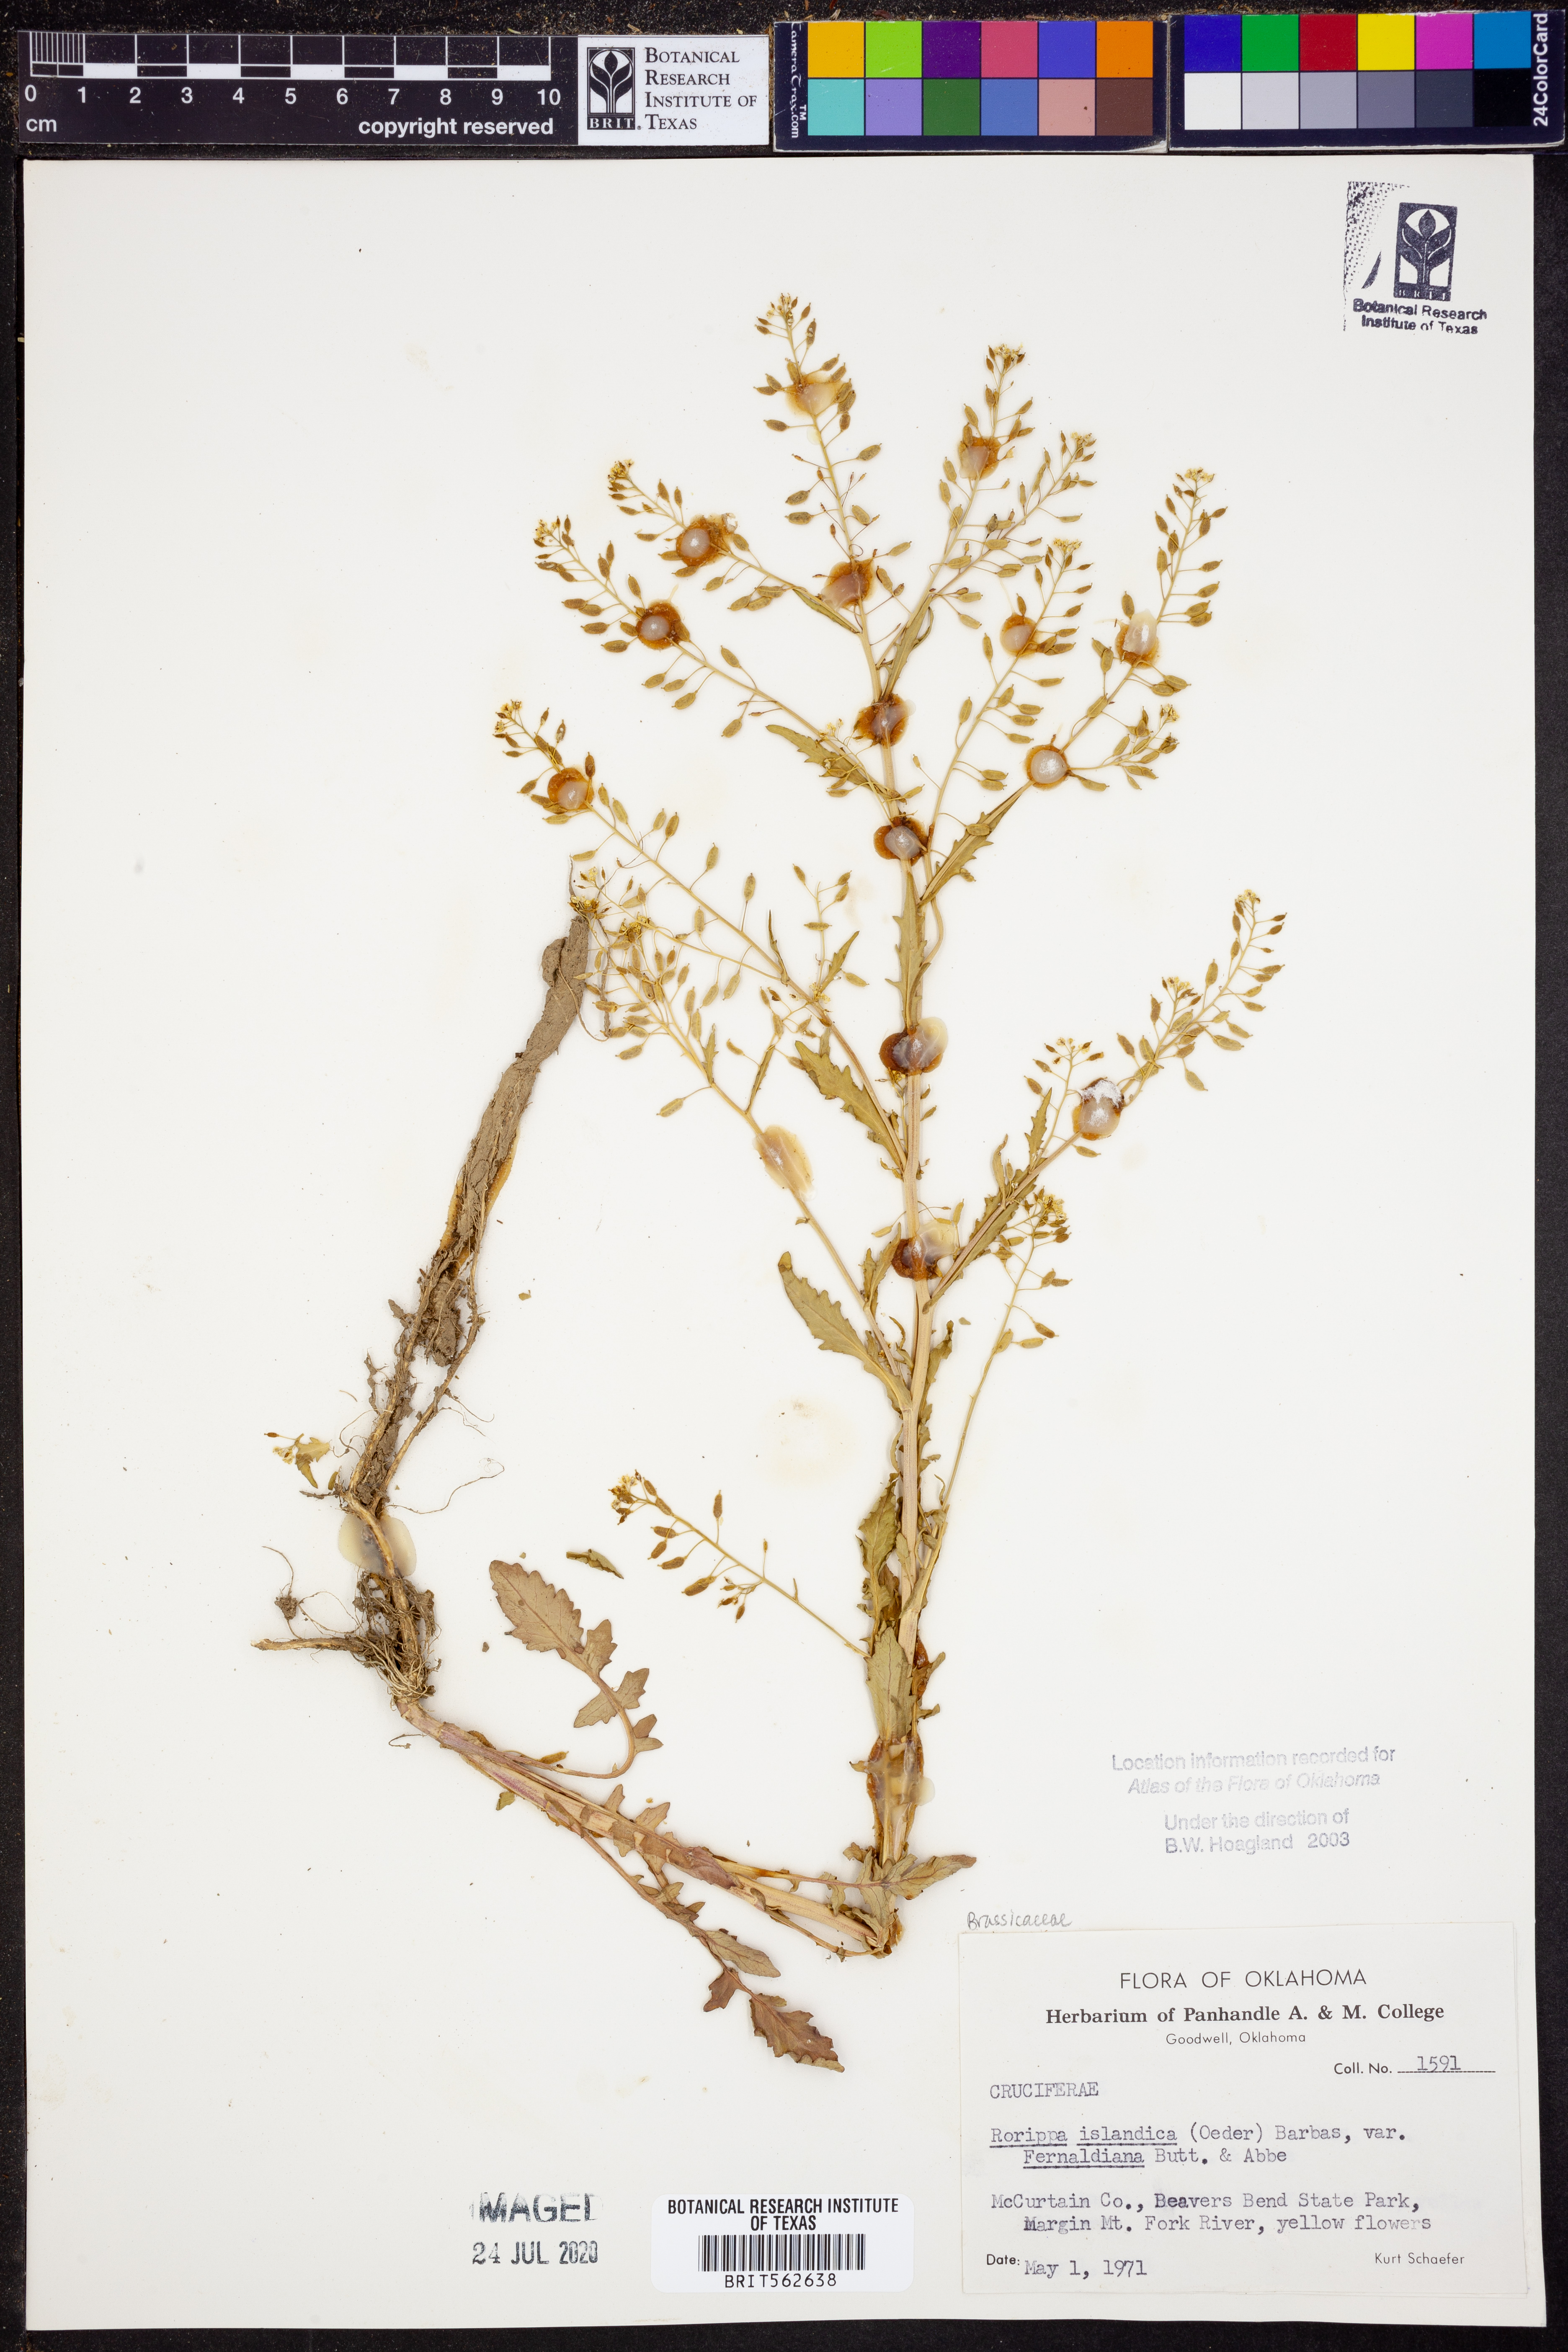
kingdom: Plantae
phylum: Tracheophyta
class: Magnoliopsida
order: Brassicales
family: Brassicaceae
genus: Rorippa
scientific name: Rorippa palustris
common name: Marsh yellow-cress
